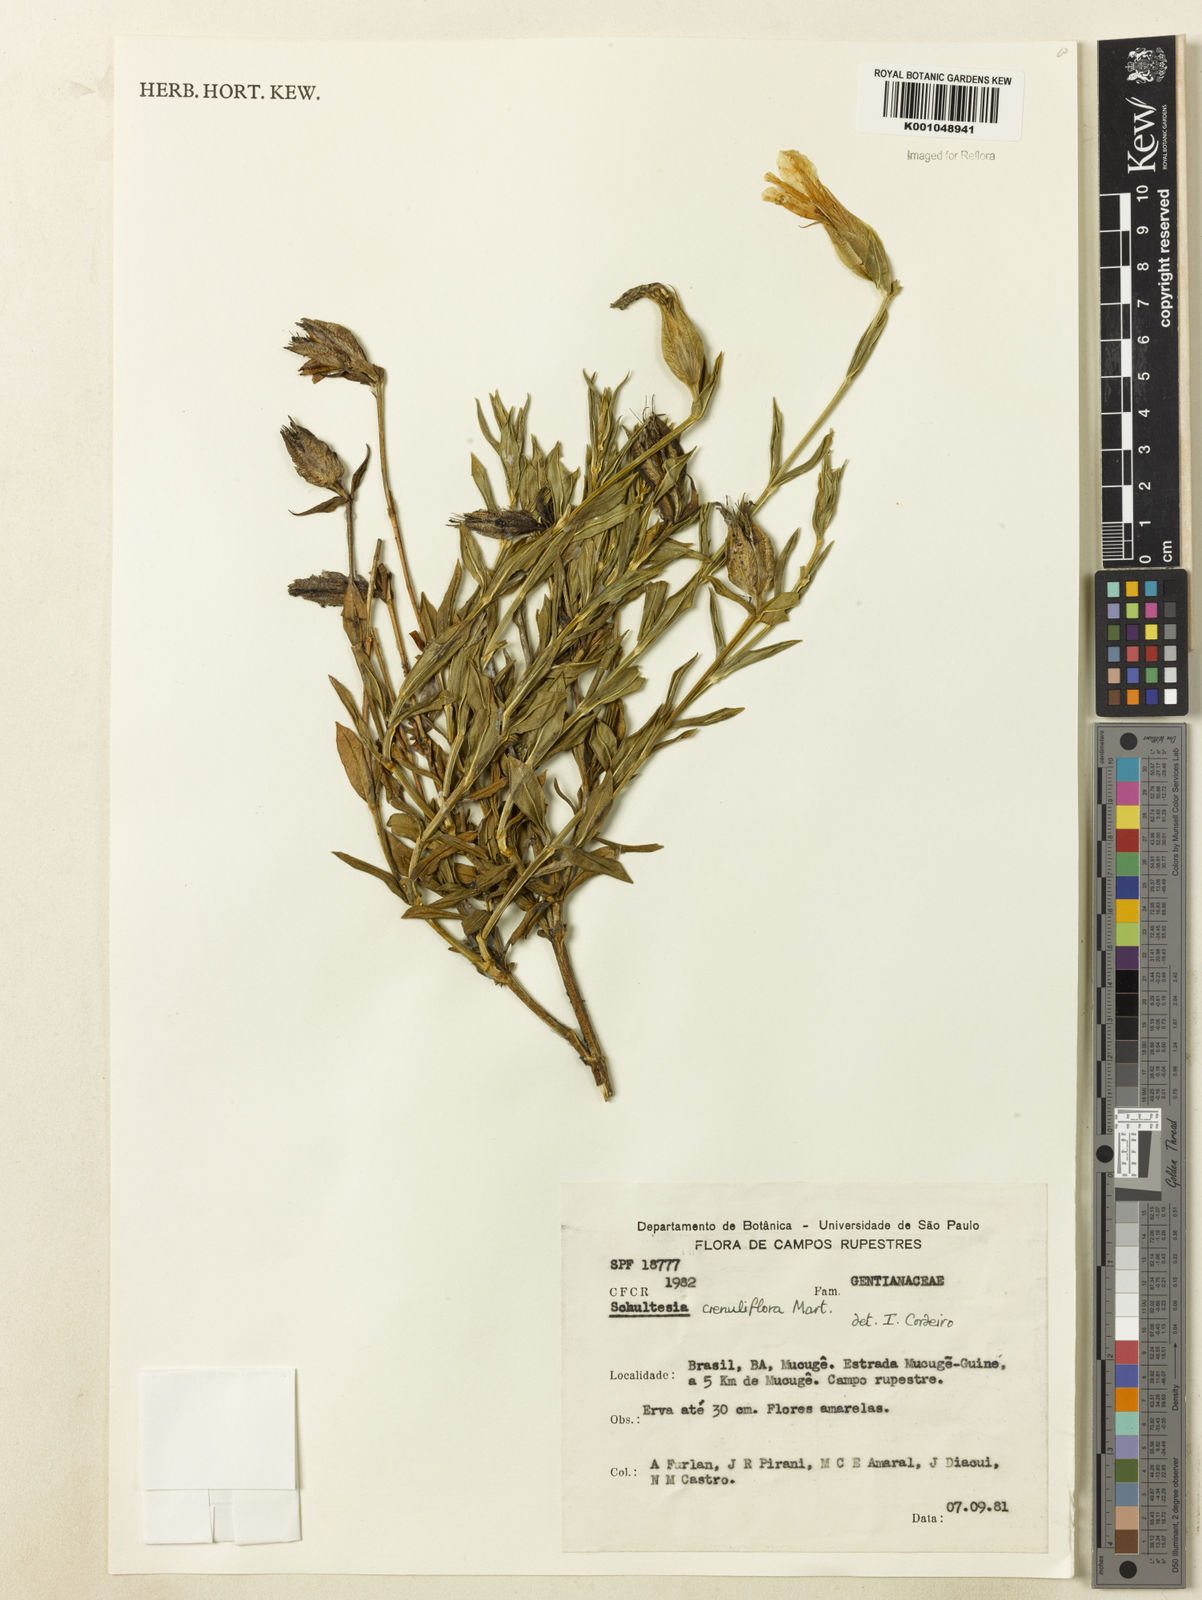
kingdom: Plantae
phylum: Tracheophyta
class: Magnoliopsida
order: Gentianales
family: Gentianaceae
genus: Schultesia
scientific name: Schultesia crenuliflora
